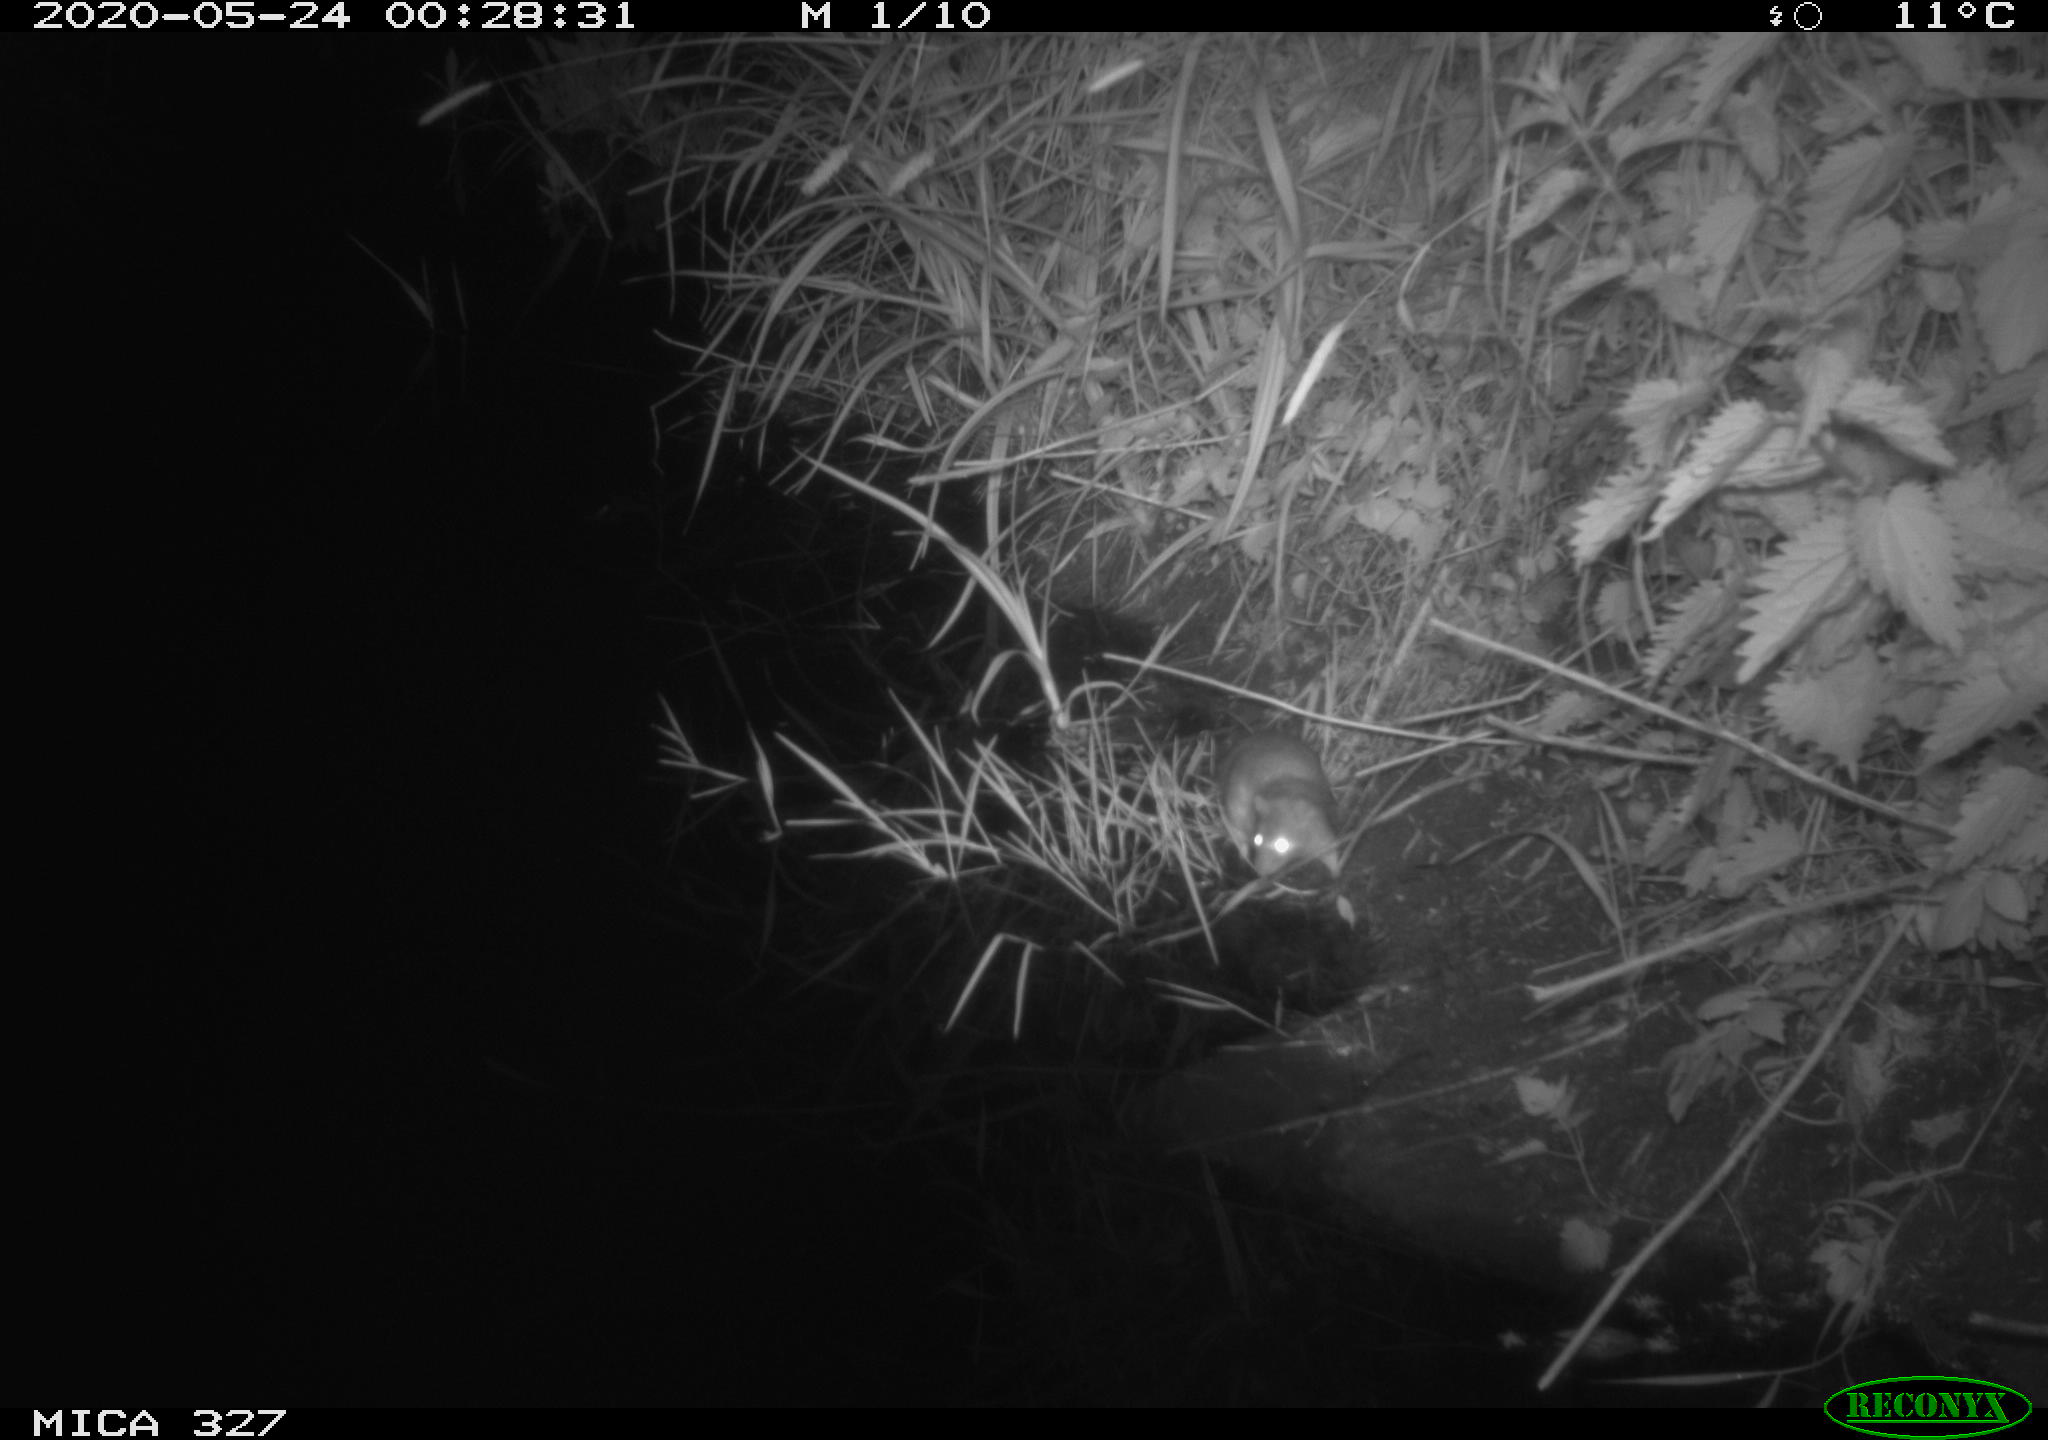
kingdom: Animalia
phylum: Chordata
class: Mammalia
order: Rodentia
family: Muridae
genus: Rattus
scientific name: Rattus norvegicus
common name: Brown rat
